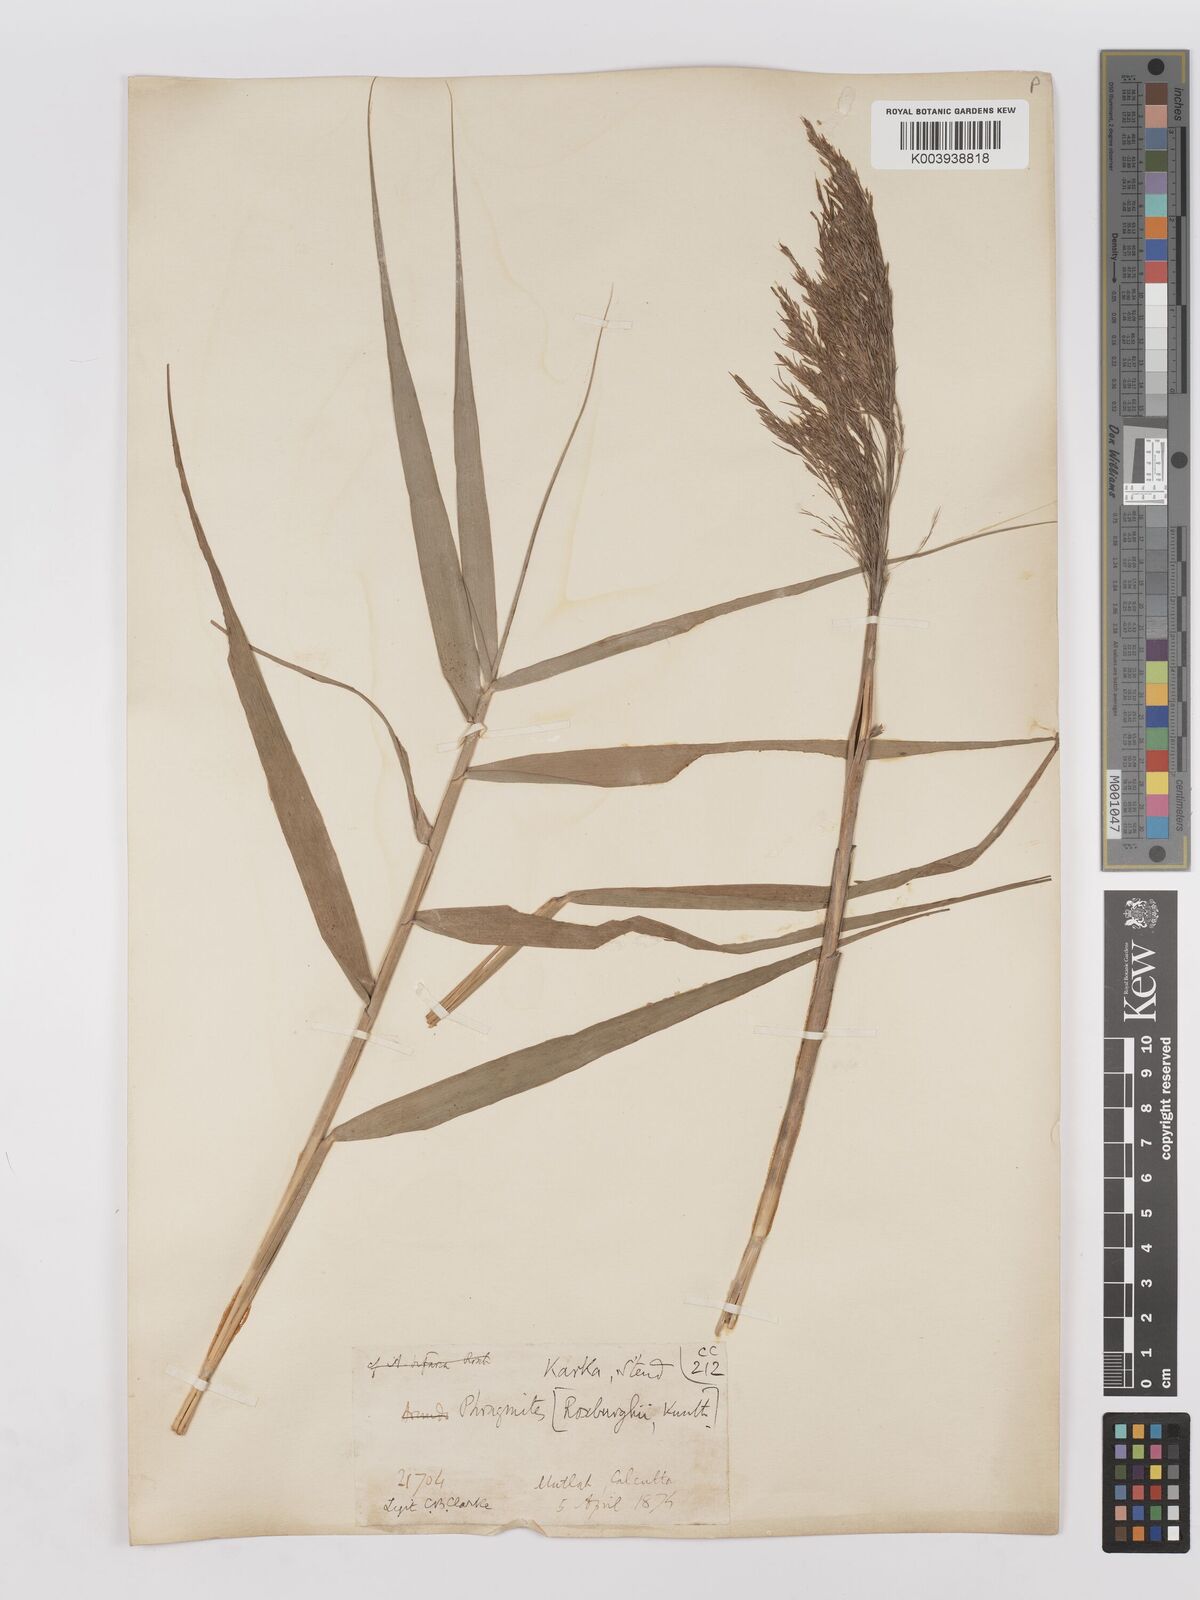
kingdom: Plantae
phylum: Tracheophyta
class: Liliopsida
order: Poales
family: Poaceae
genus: Phragmites
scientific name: Phragmites karka
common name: Tropical reed
